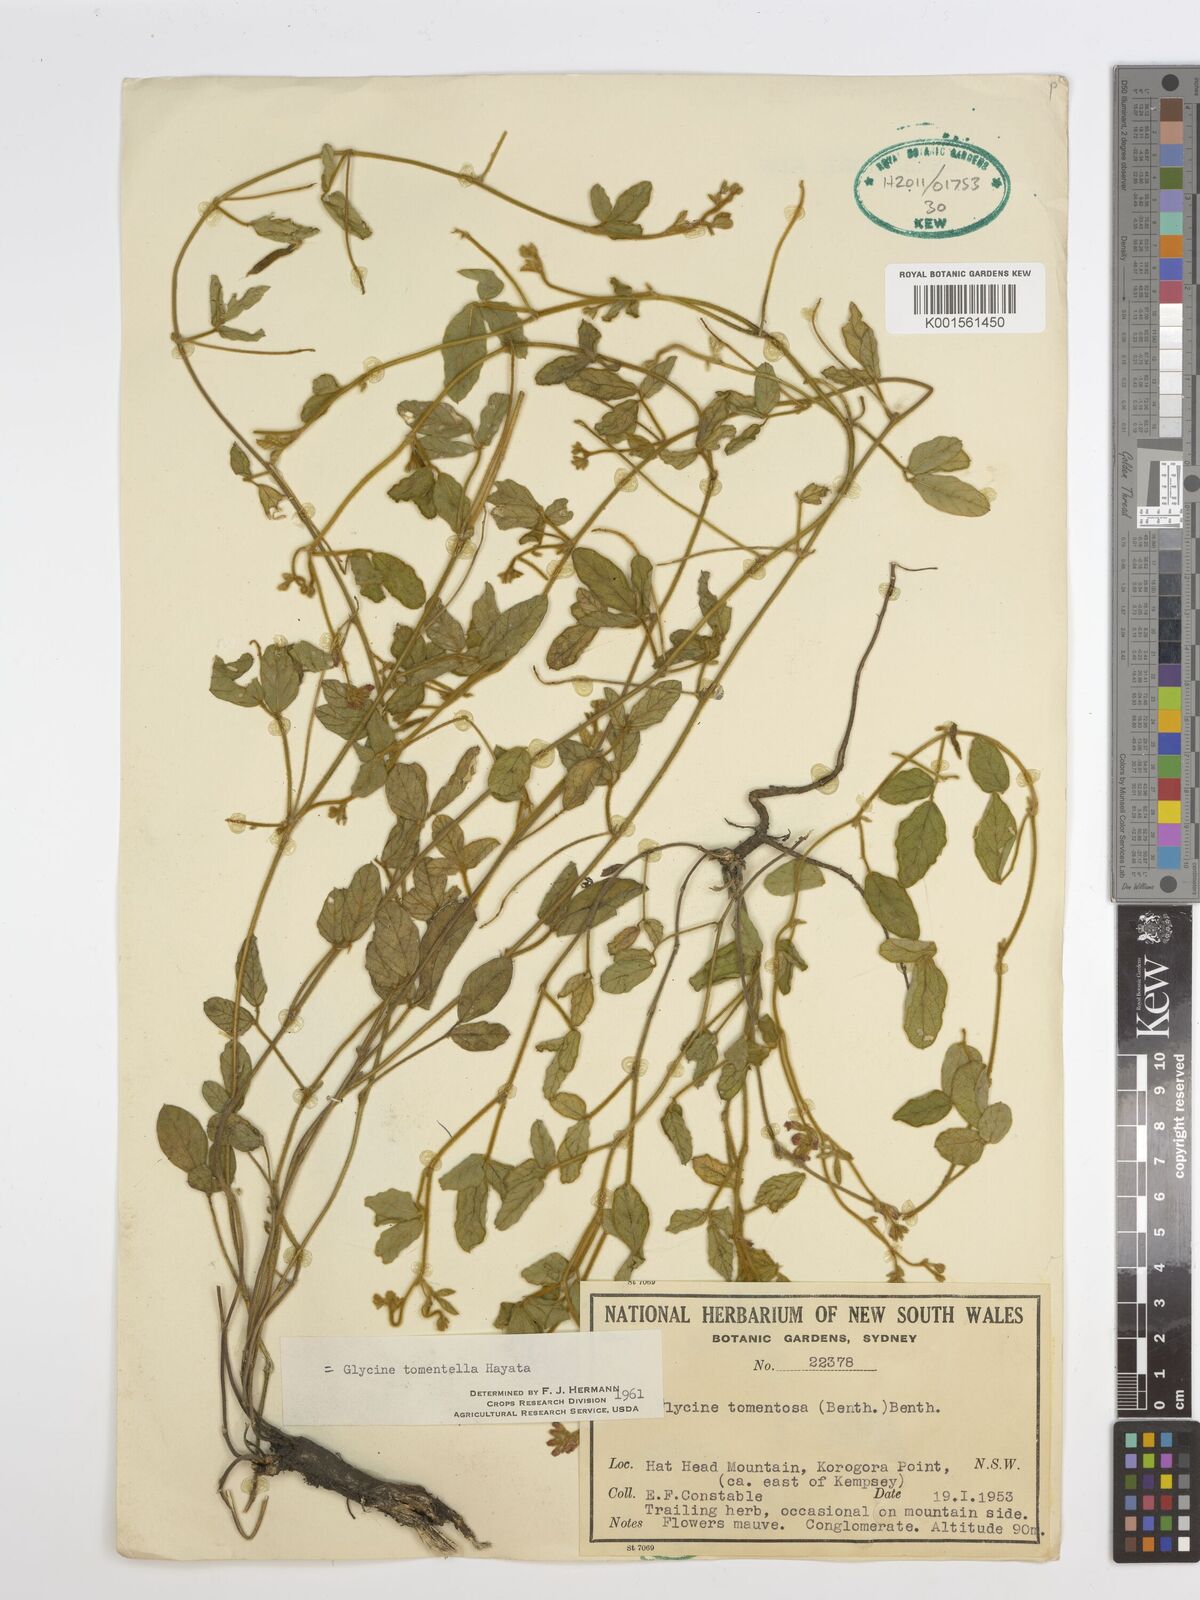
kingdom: Plantae
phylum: Tracheophyta
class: Magnoliopsida
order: Fabales
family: Fabaceae
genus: Glycine
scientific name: Glycine tomentella
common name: Hairy glycine
